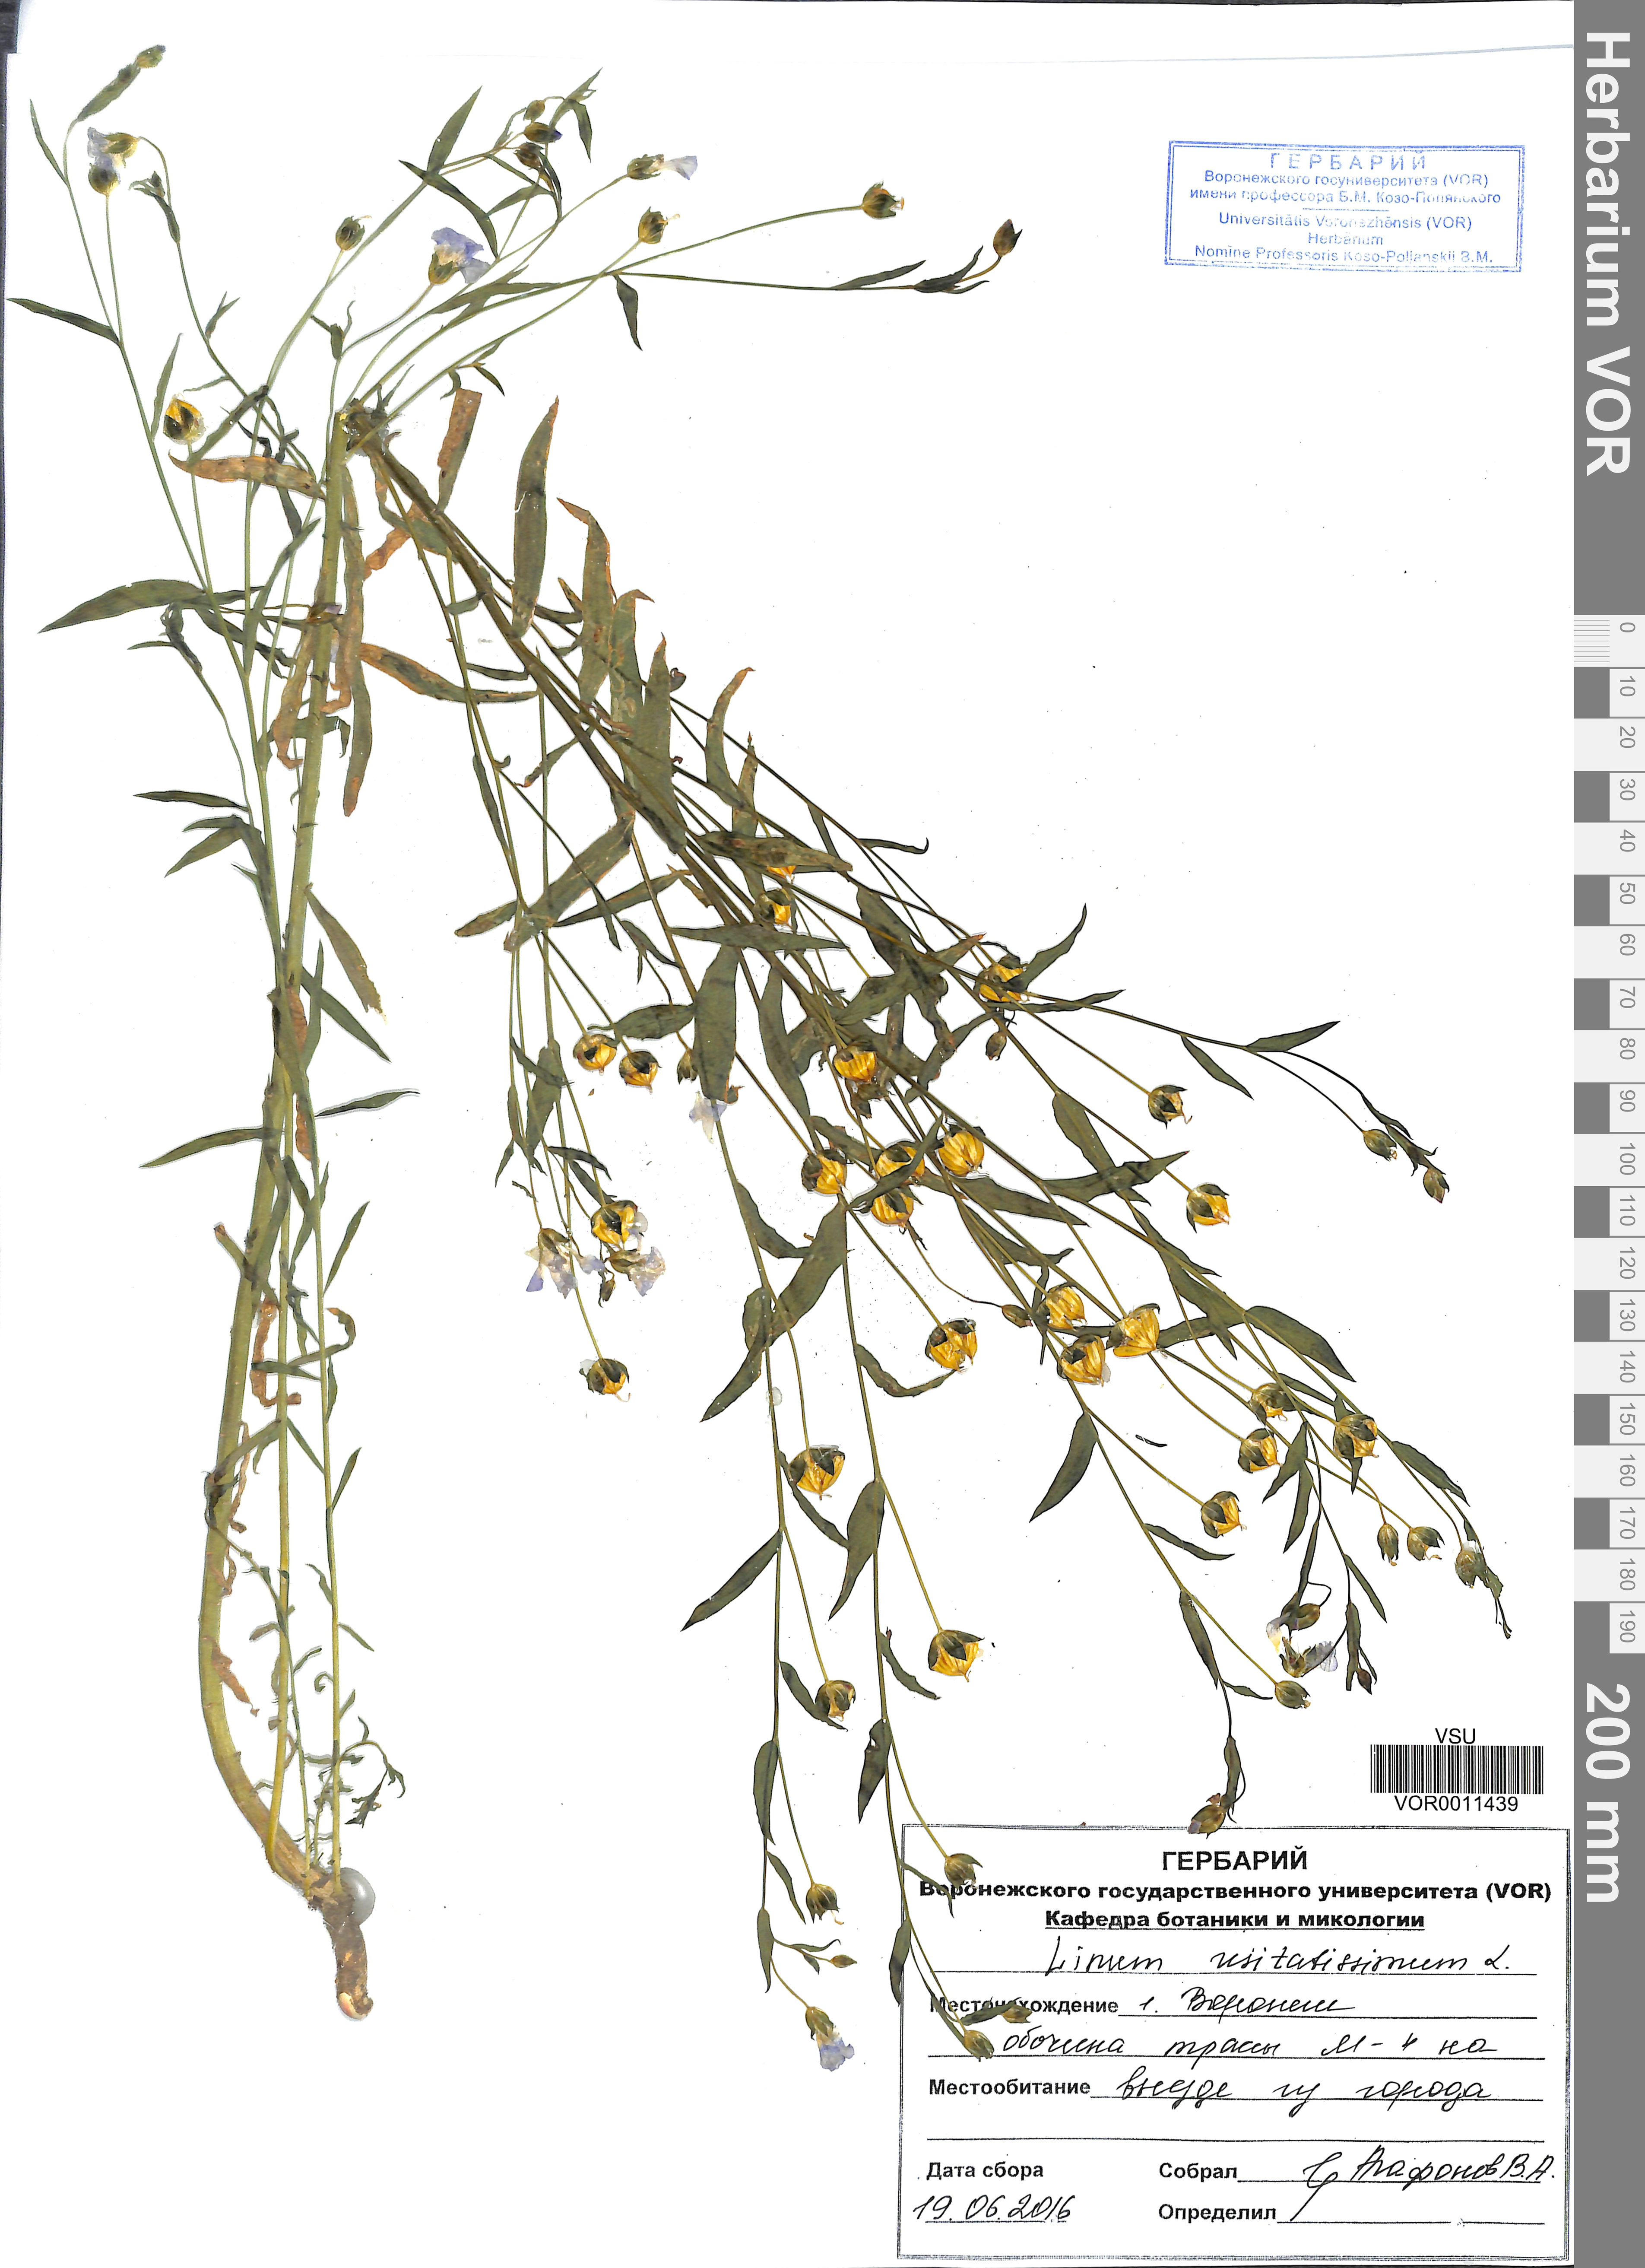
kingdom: Plantae
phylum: Tracheophyta
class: Magnoliopsida
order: Malpighiales
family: Linaceae
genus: Linum
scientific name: Linum usitatissimum
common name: Flax
